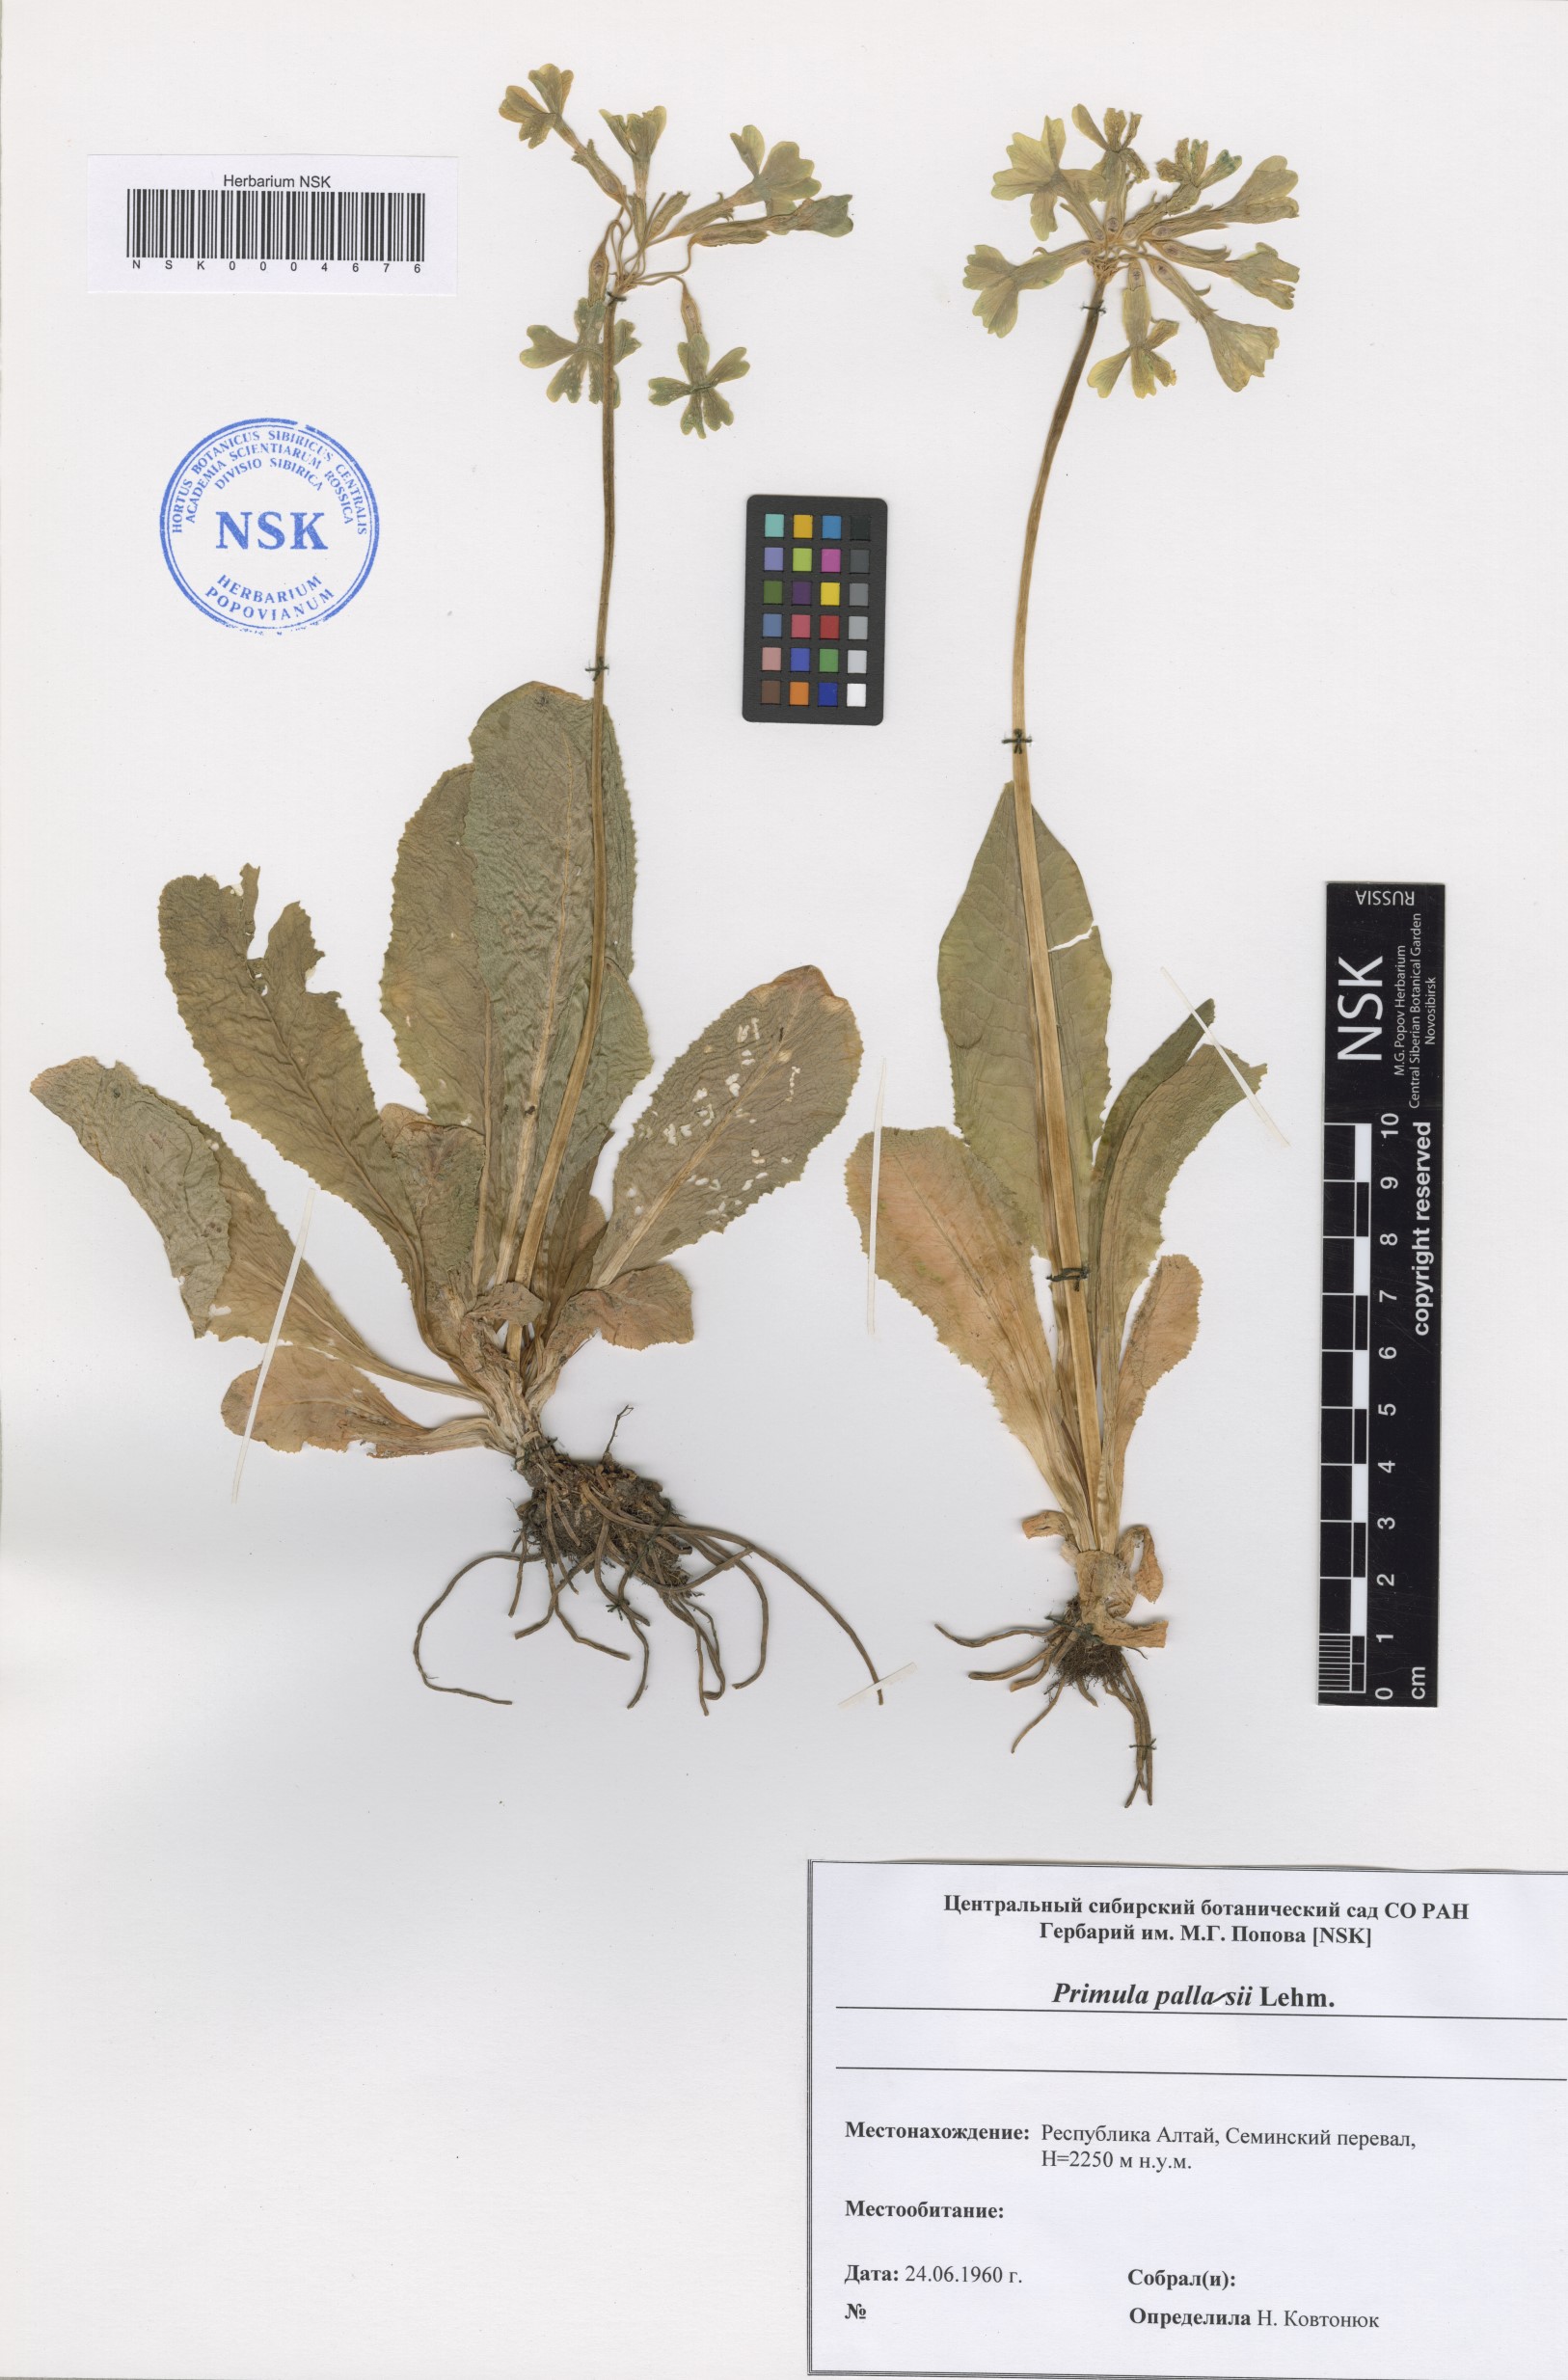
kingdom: Plantae
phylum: Tracheophyta
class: Magnoliopsida
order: Ericales
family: Primulaceae
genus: Primula
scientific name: Primula elatior
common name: Oxlip
